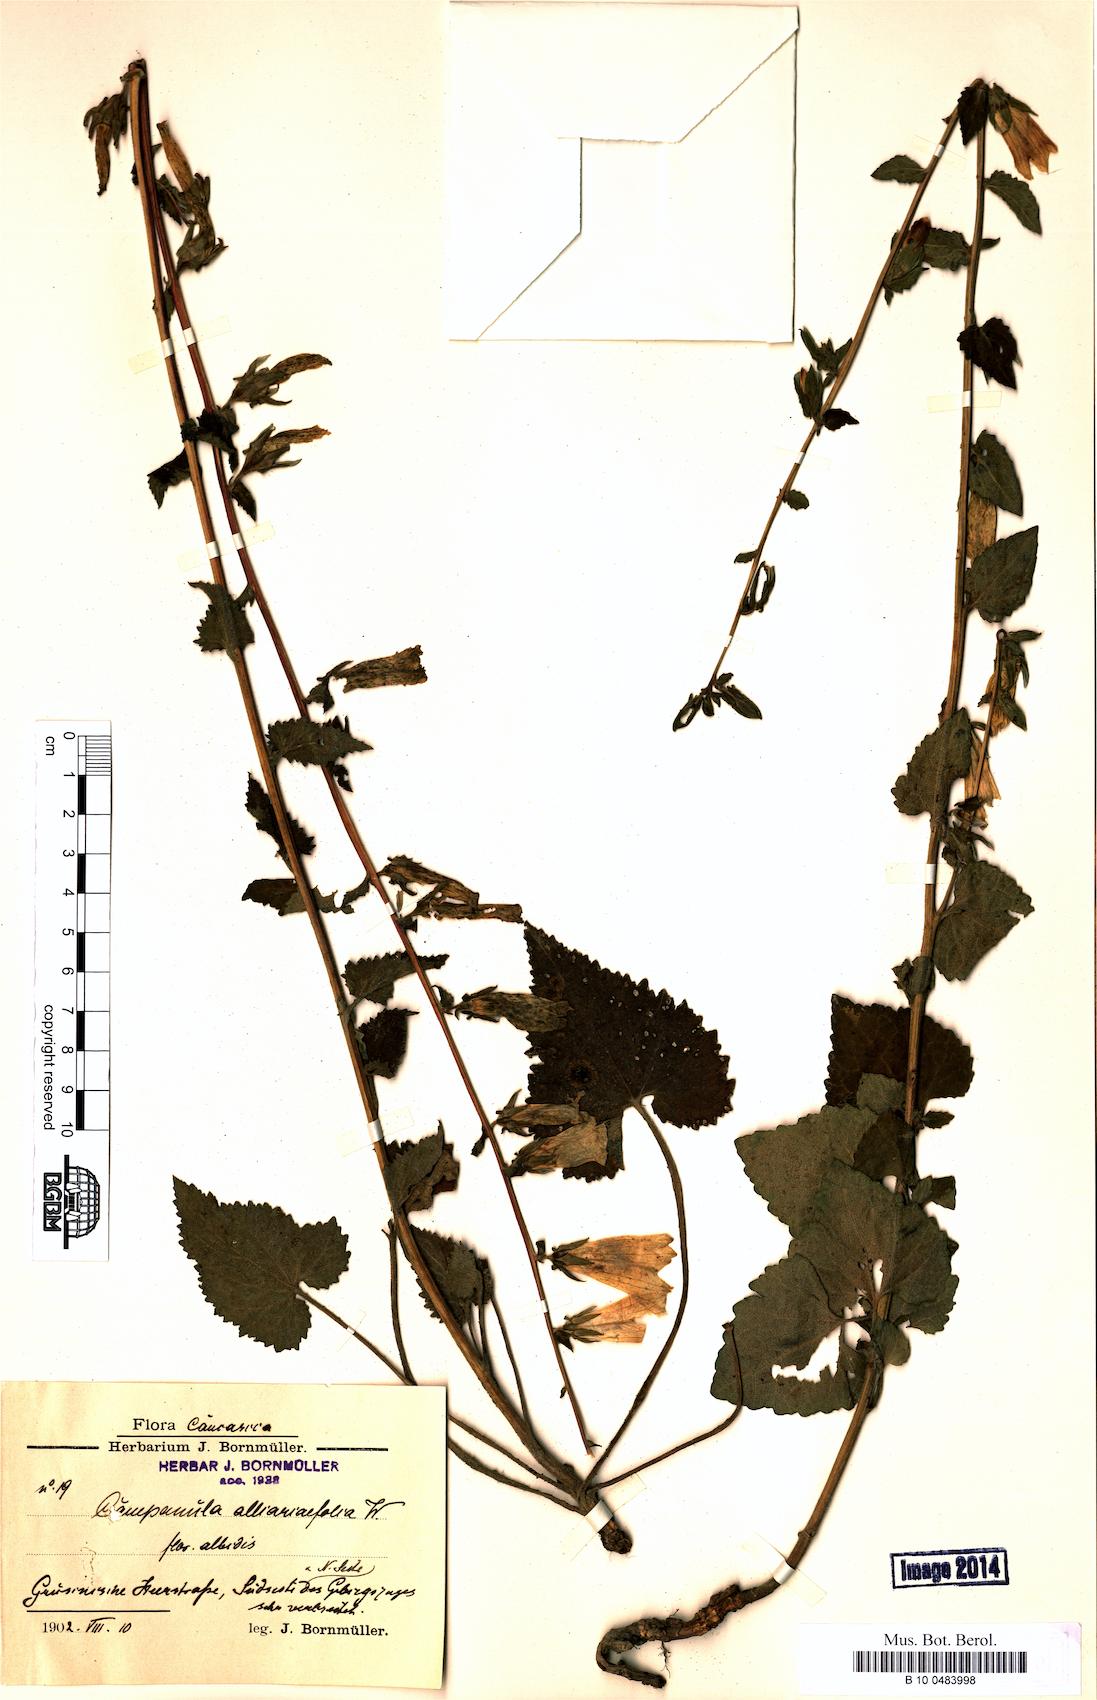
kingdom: Plantae
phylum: Tracheophyta
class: Magnoliopsida
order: Asterales
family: Campanulaceae
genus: Campanula
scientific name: Campanula alliariifolia
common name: Cornish bellflower
